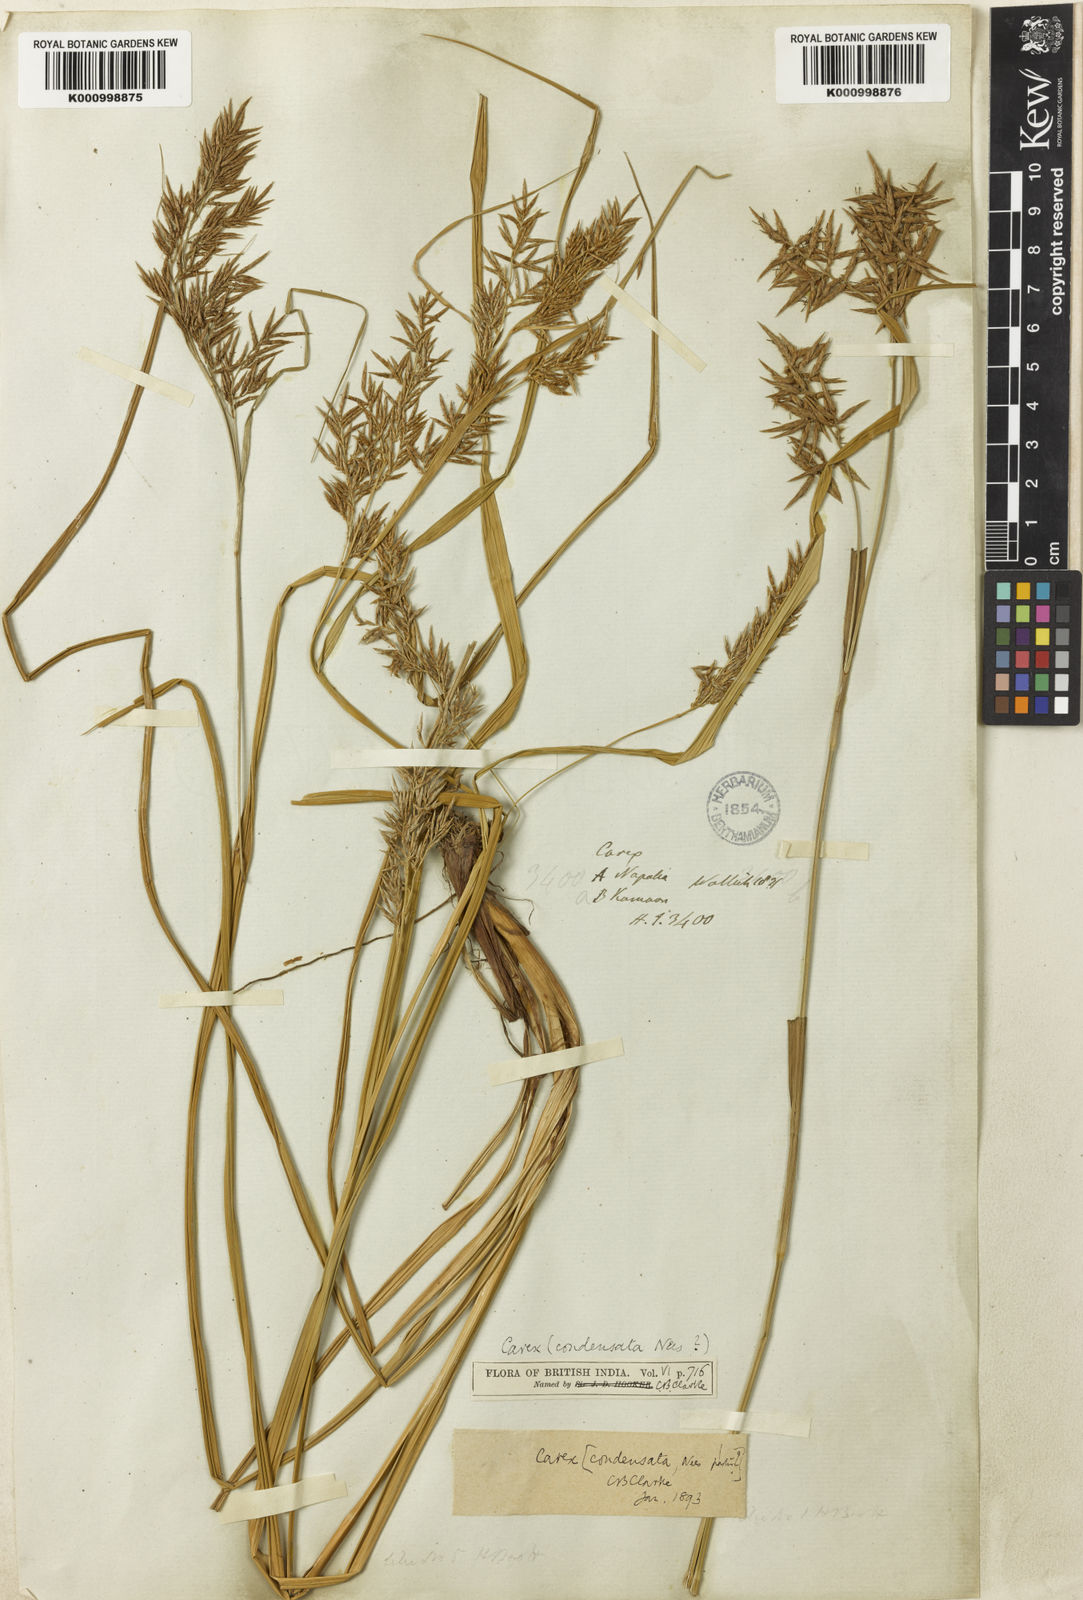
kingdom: Plantae
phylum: Tracheophyta
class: Liliopsida
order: Poales
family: Cyperaceae
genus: Carex
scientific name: Carex condensata
